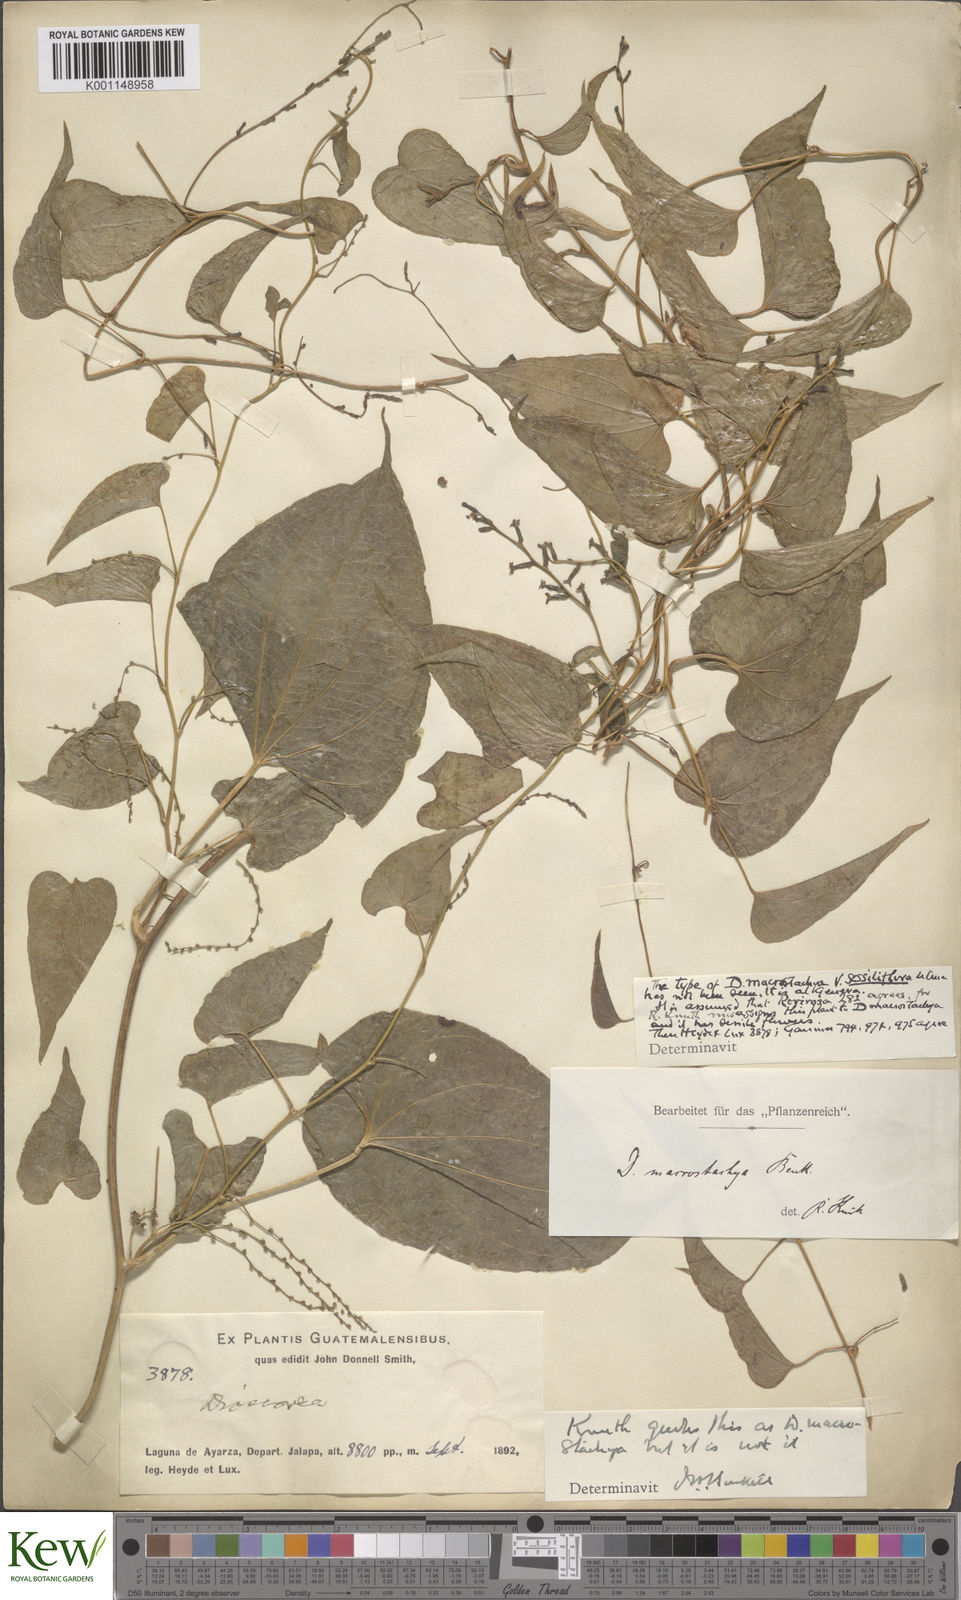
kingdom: Plantae
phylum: Tracheophyta
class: Liliopsida
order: Dioscoreales
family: Dioscoreaceae
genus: Dioscorea
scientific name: Dioscorea mexicana
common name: Mexican yam
